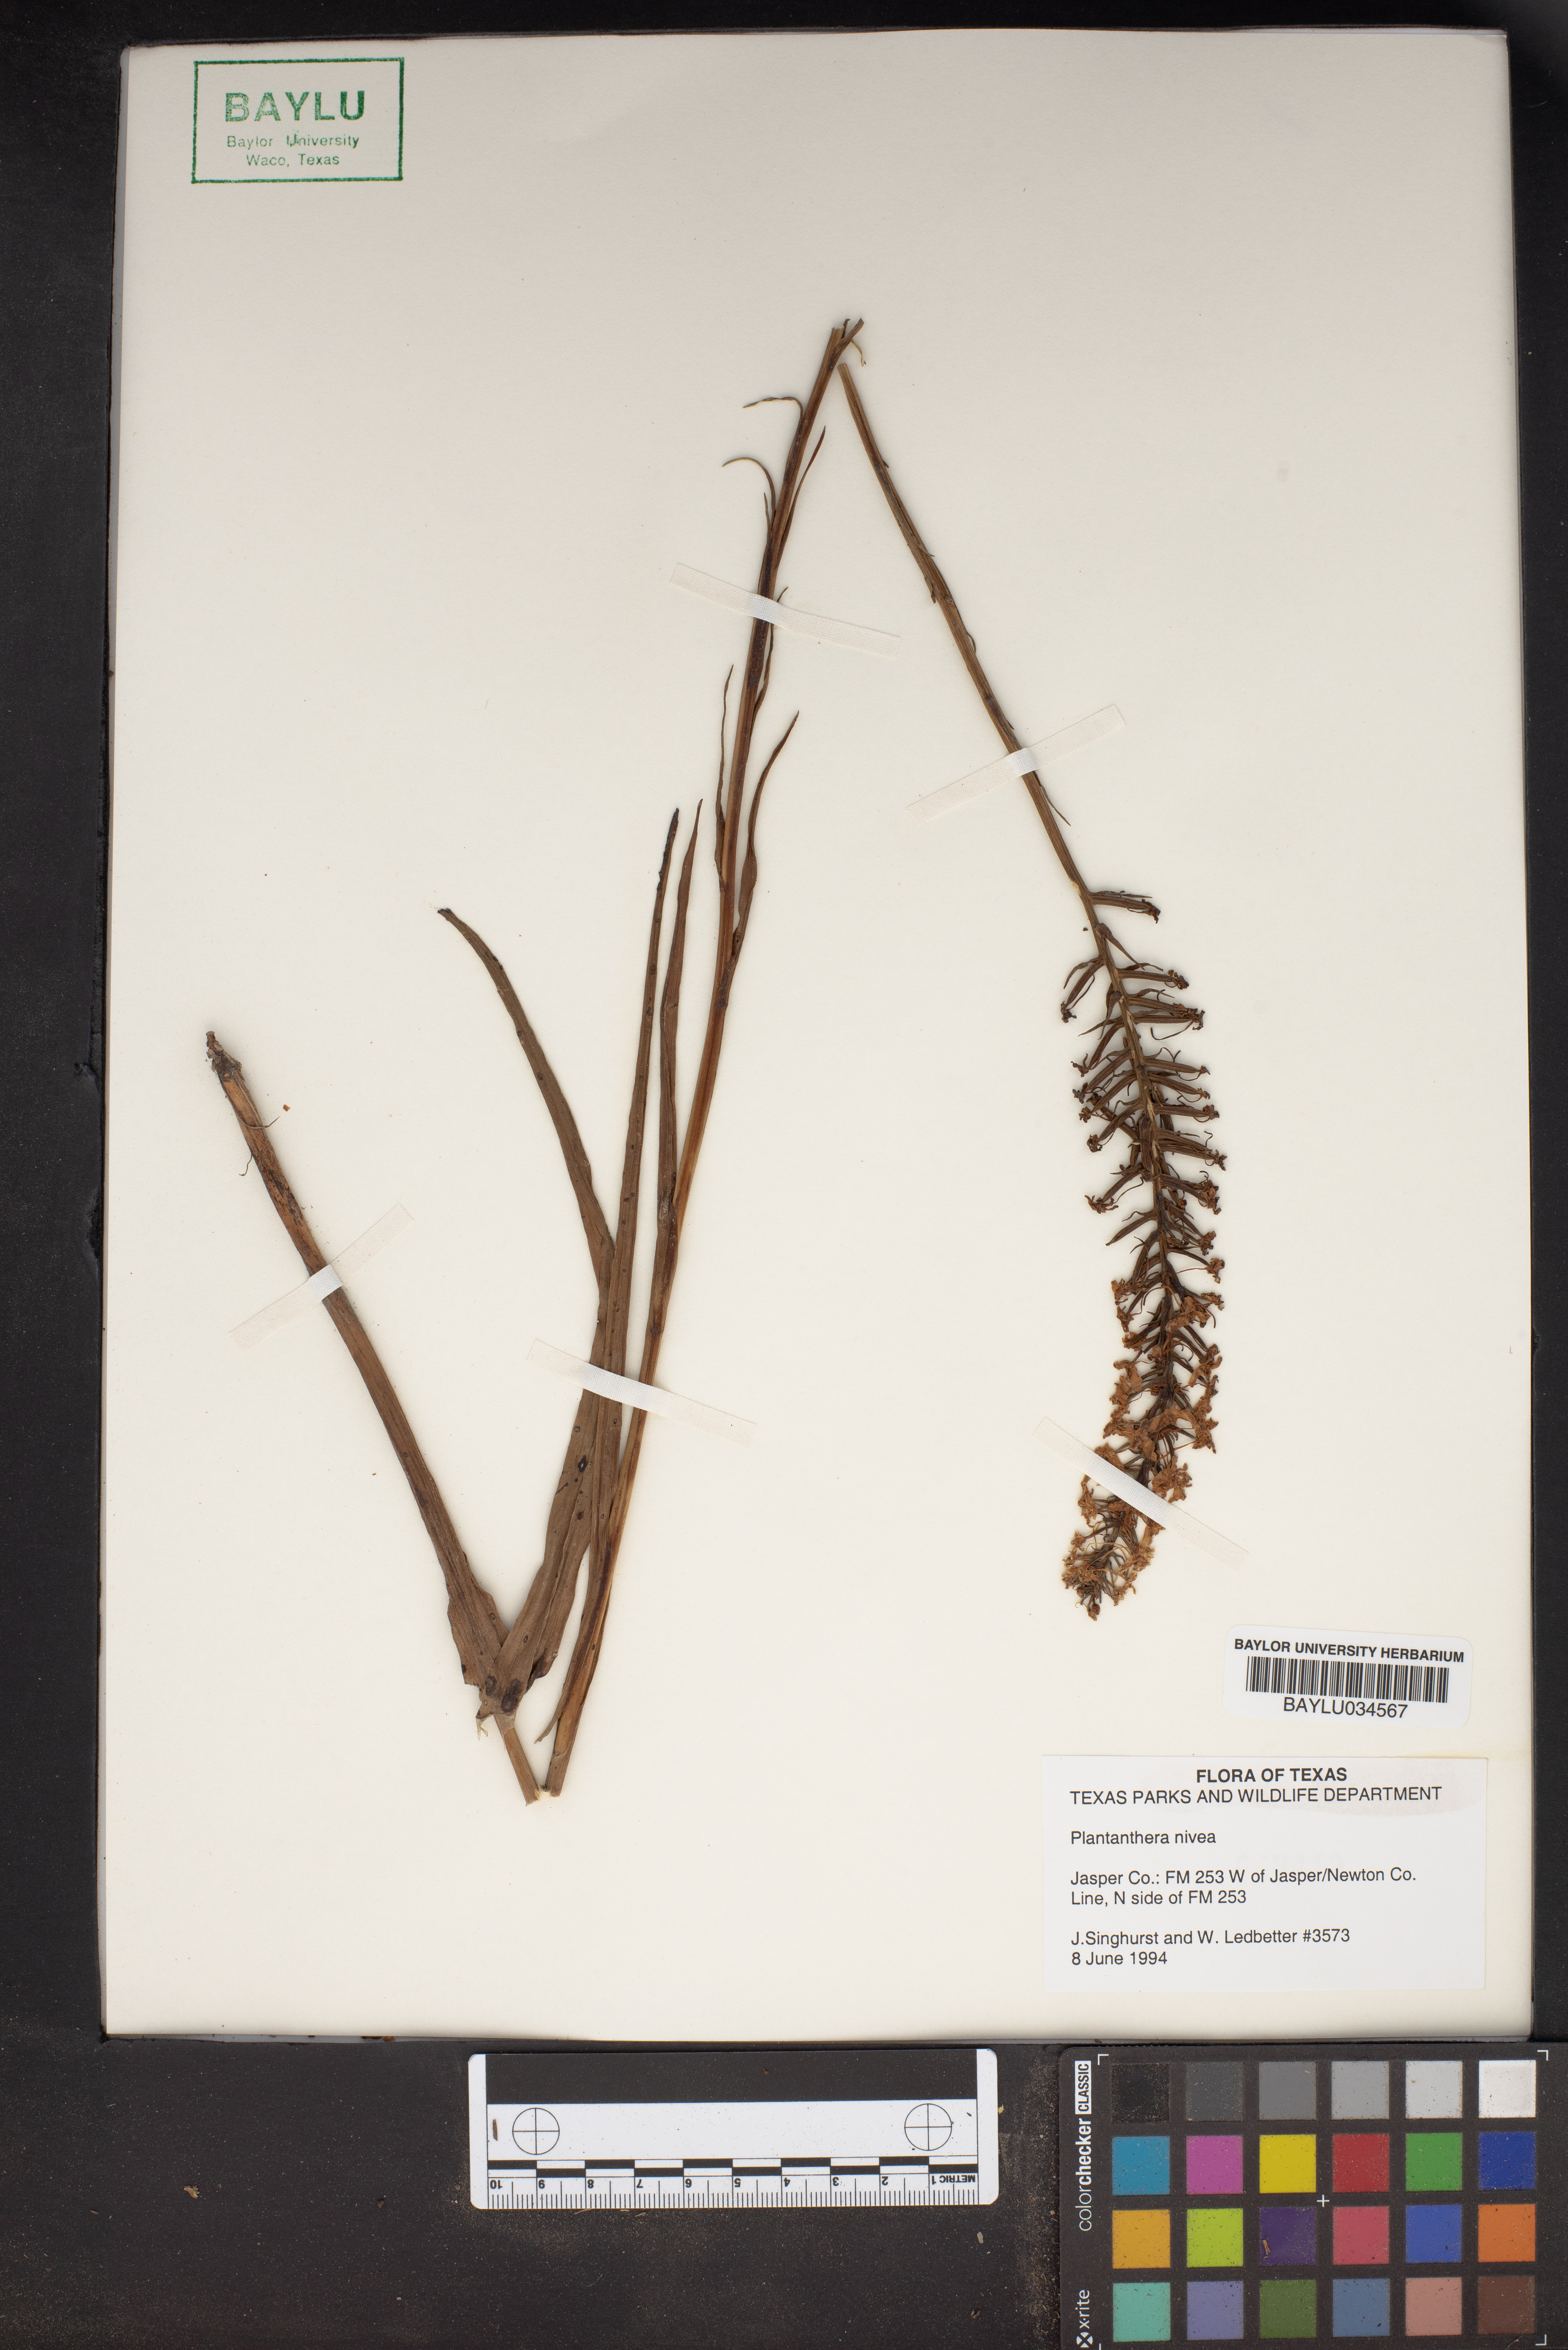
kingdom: Plantae
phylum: Tracheophyta
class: Liliopsida
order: Asparagales
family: Orchidaceae
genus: Platanthera
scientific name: Platanthera nivea
